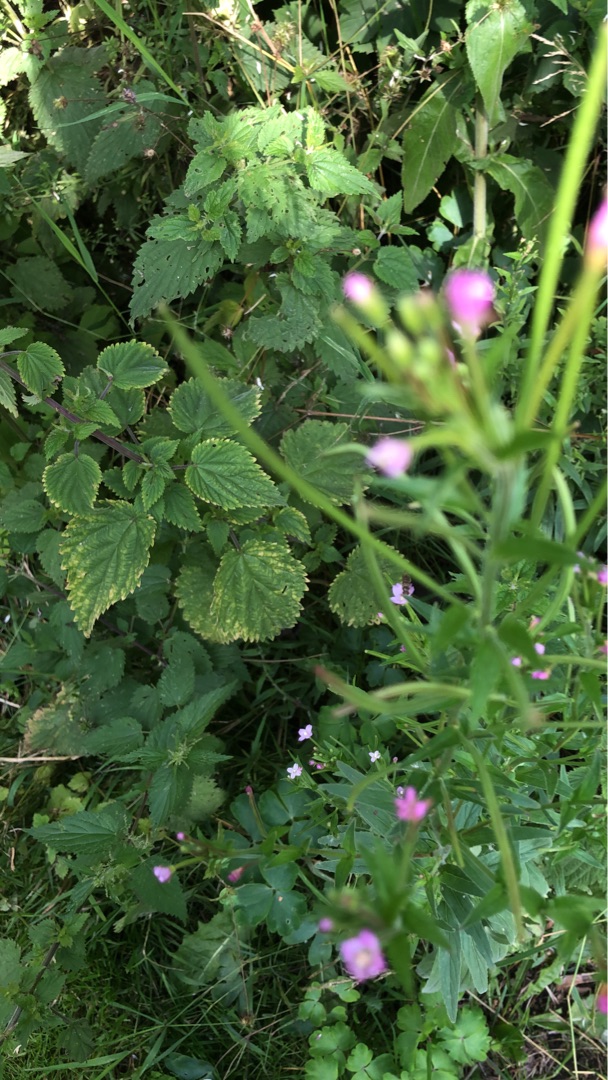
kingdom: Plantae
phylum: Tracheophyta
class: Magnoliopsida
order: Myrtales
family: Onagraceae
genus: Epilobium
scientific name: Epilobium parviflorum
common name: Dunet dueurt
